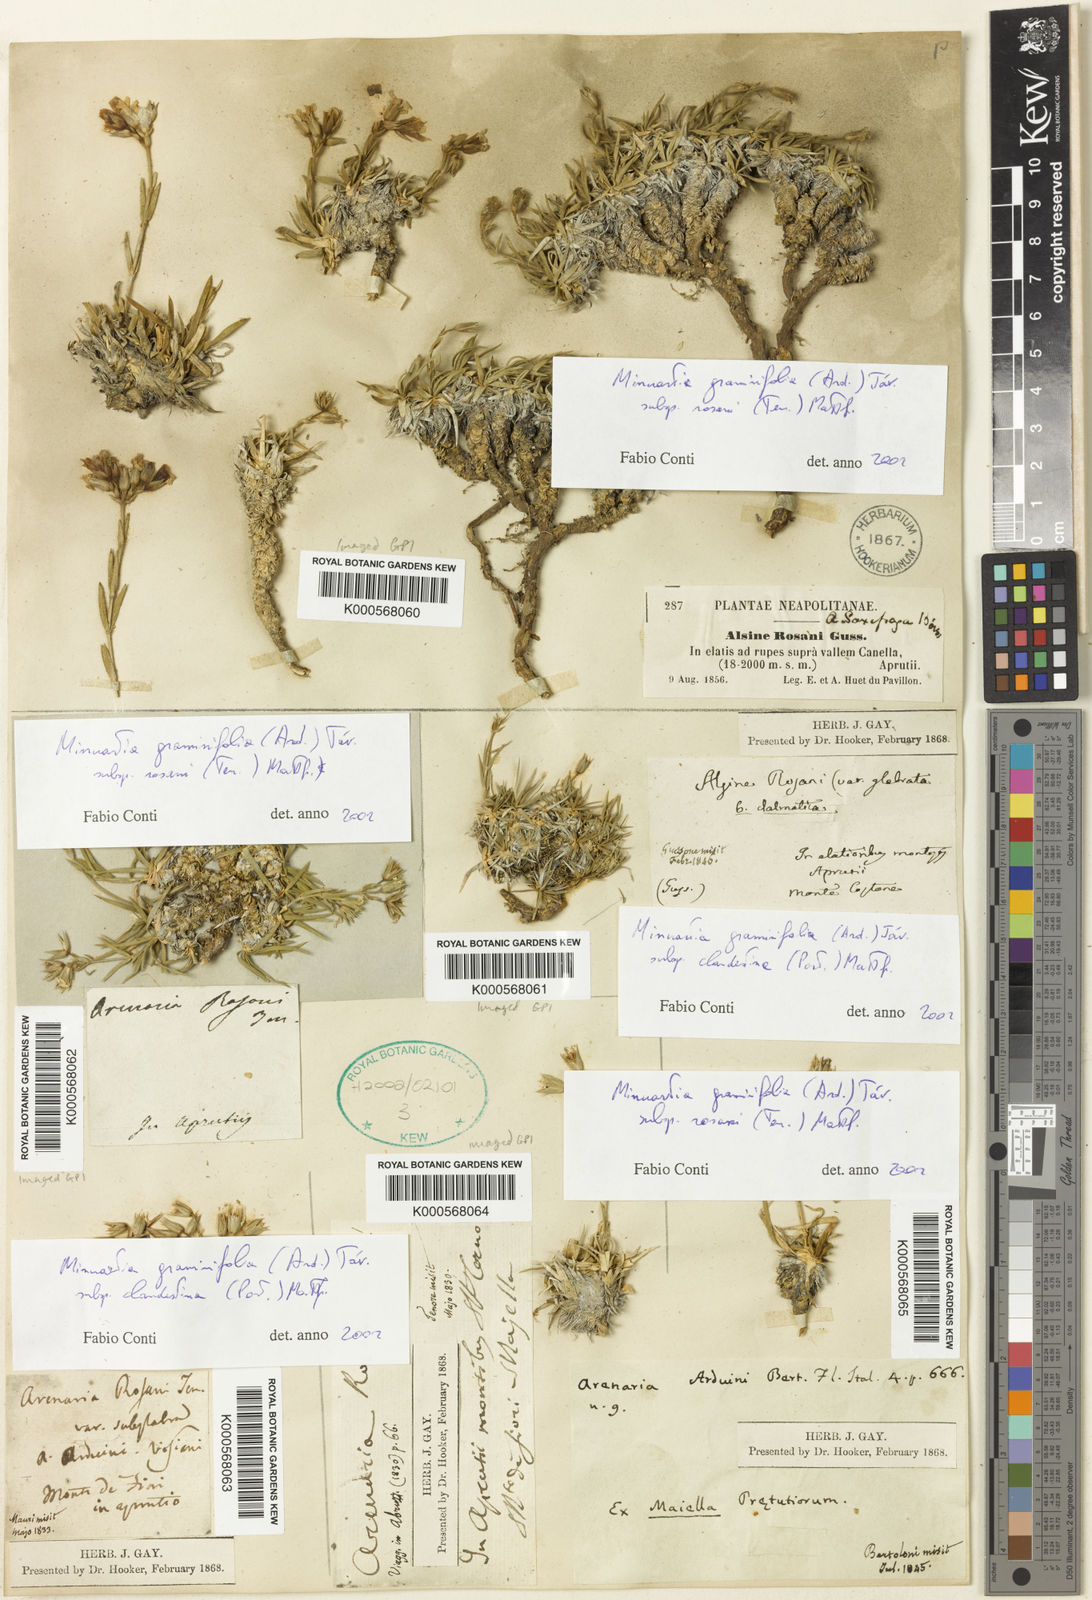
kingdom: Plantae
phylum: Tracheophyta
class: Magnoliopsida
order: Caryophyllales
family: Caryophyllaceae
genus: Mcneillia
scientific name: Mcneillia graminifolia
